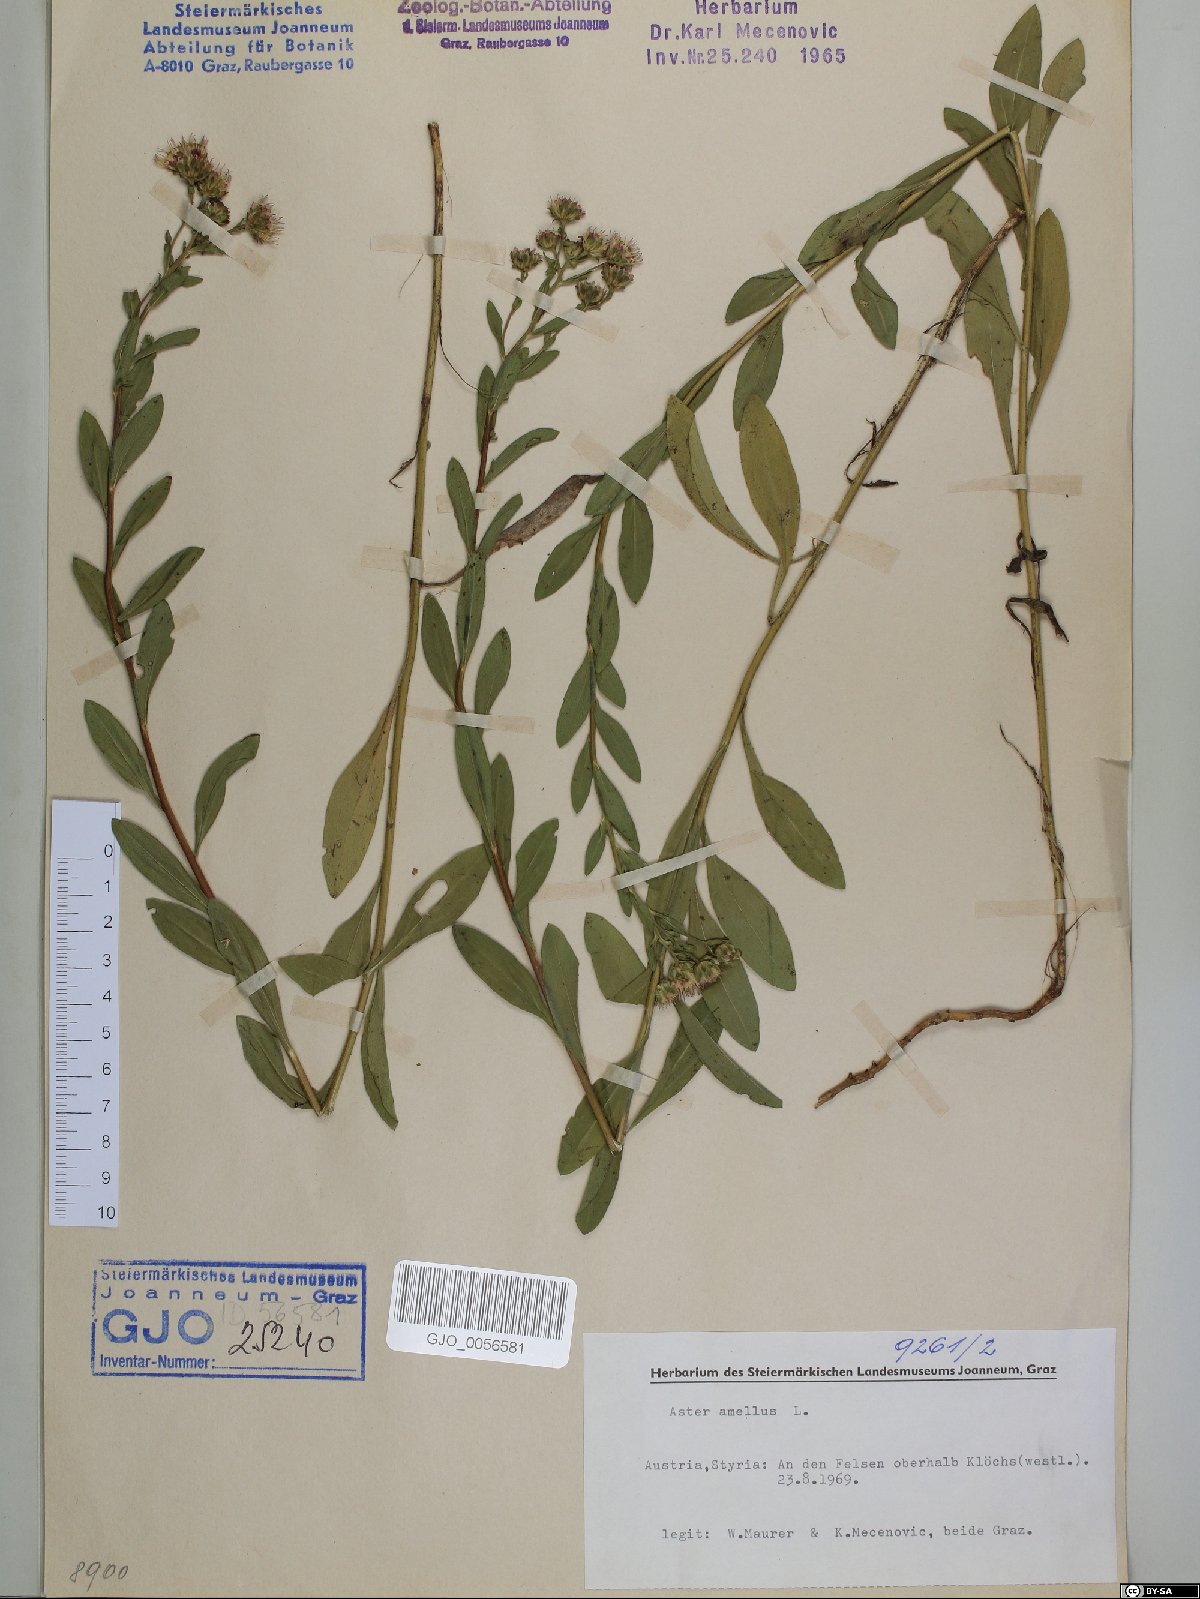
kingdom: Plantae
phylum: Tracheophyta
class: Magnoliopsida
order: Asterales
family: Asteraceae
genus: Aster
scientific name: Aster amellus
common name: European michaelmas daisy
